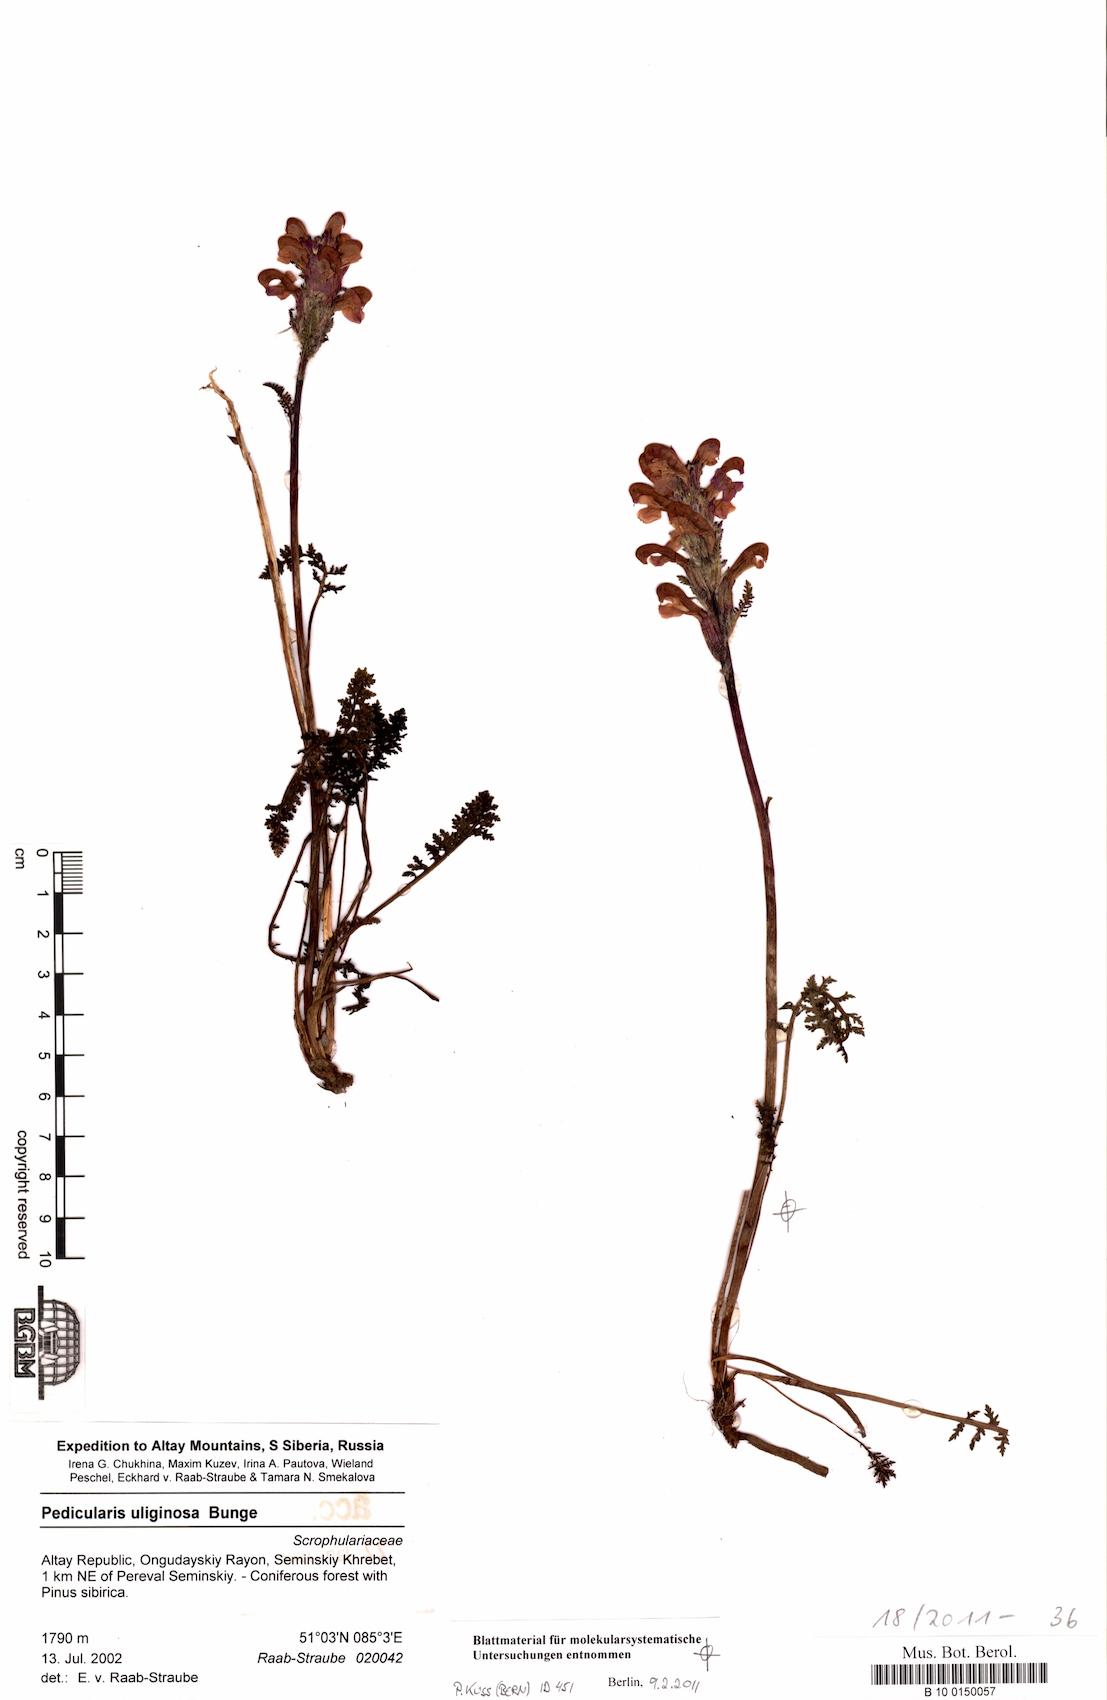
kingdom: Plantae
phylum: Tracheophyta
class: Magnoliopsida
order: Lamiales
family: Orobanchaceae
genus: Pedicularis
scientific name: Pedicularis uliginosa
